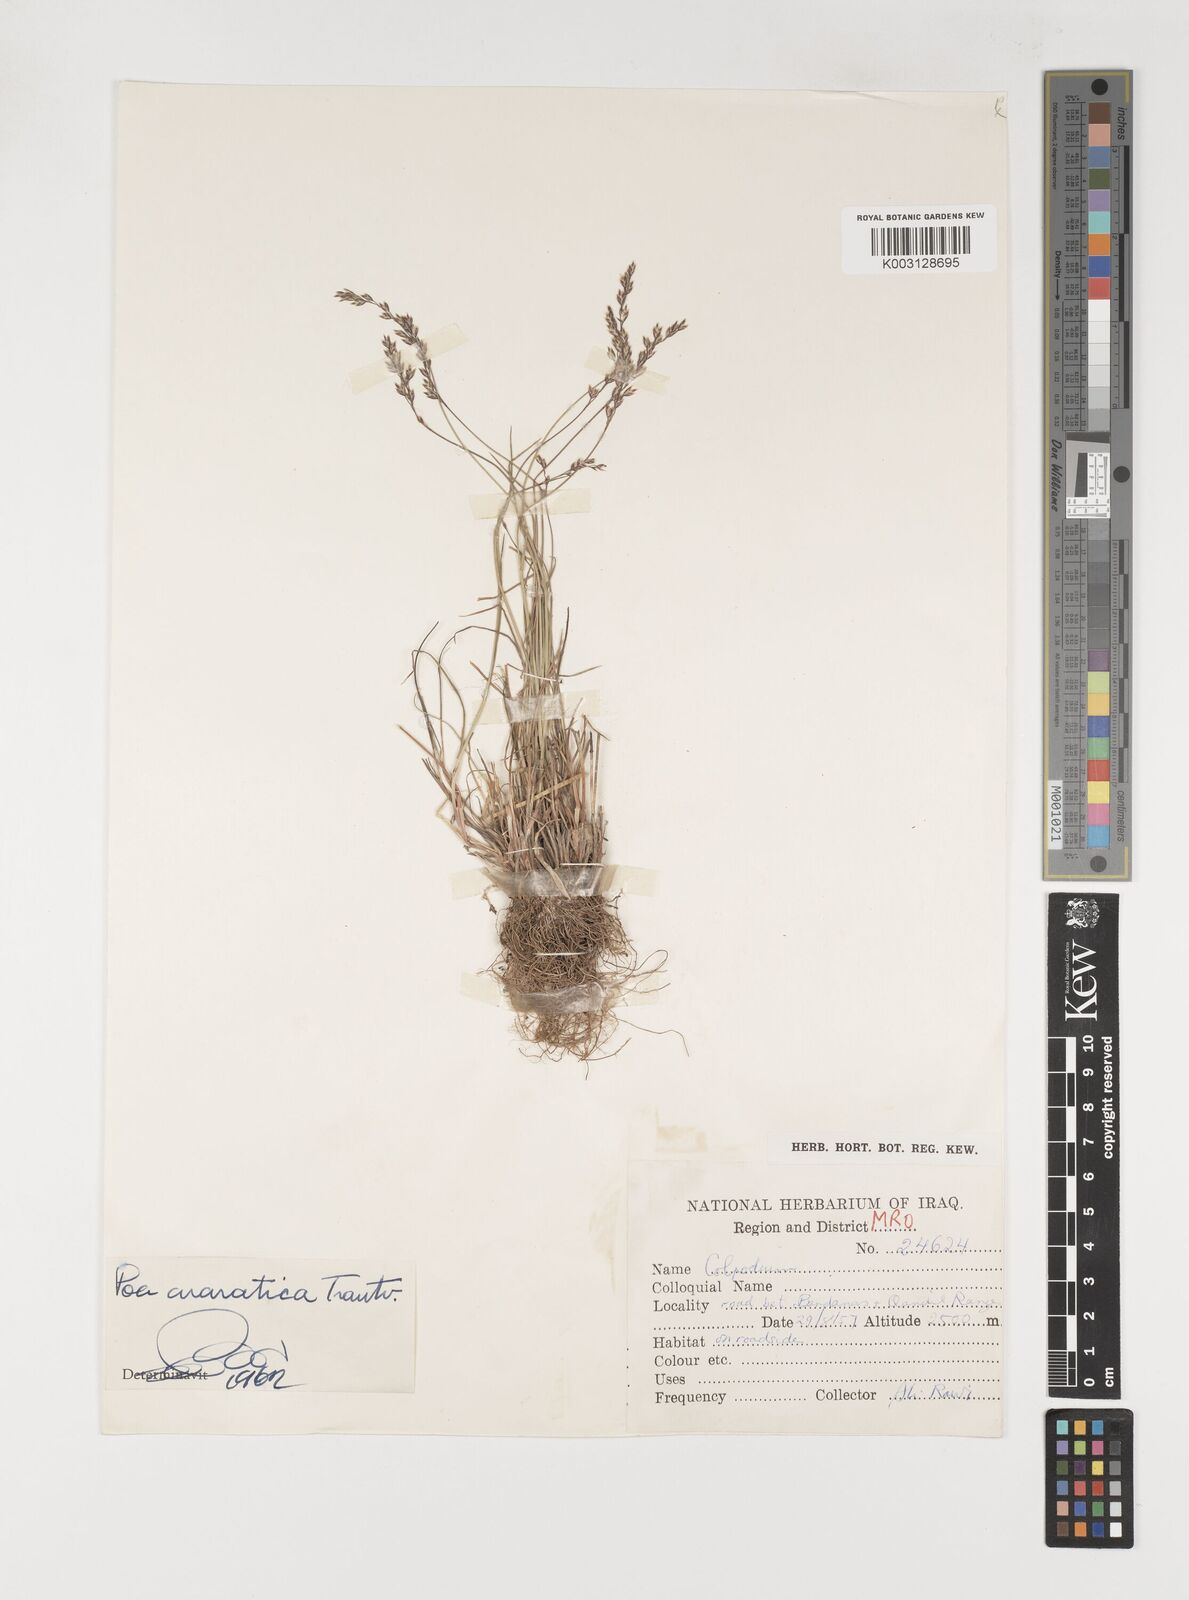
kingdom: Plantae
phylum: Tracheophyta
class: Liliopsida
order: Poales
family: Poaceae
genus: Poa
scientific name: Poa araratica
